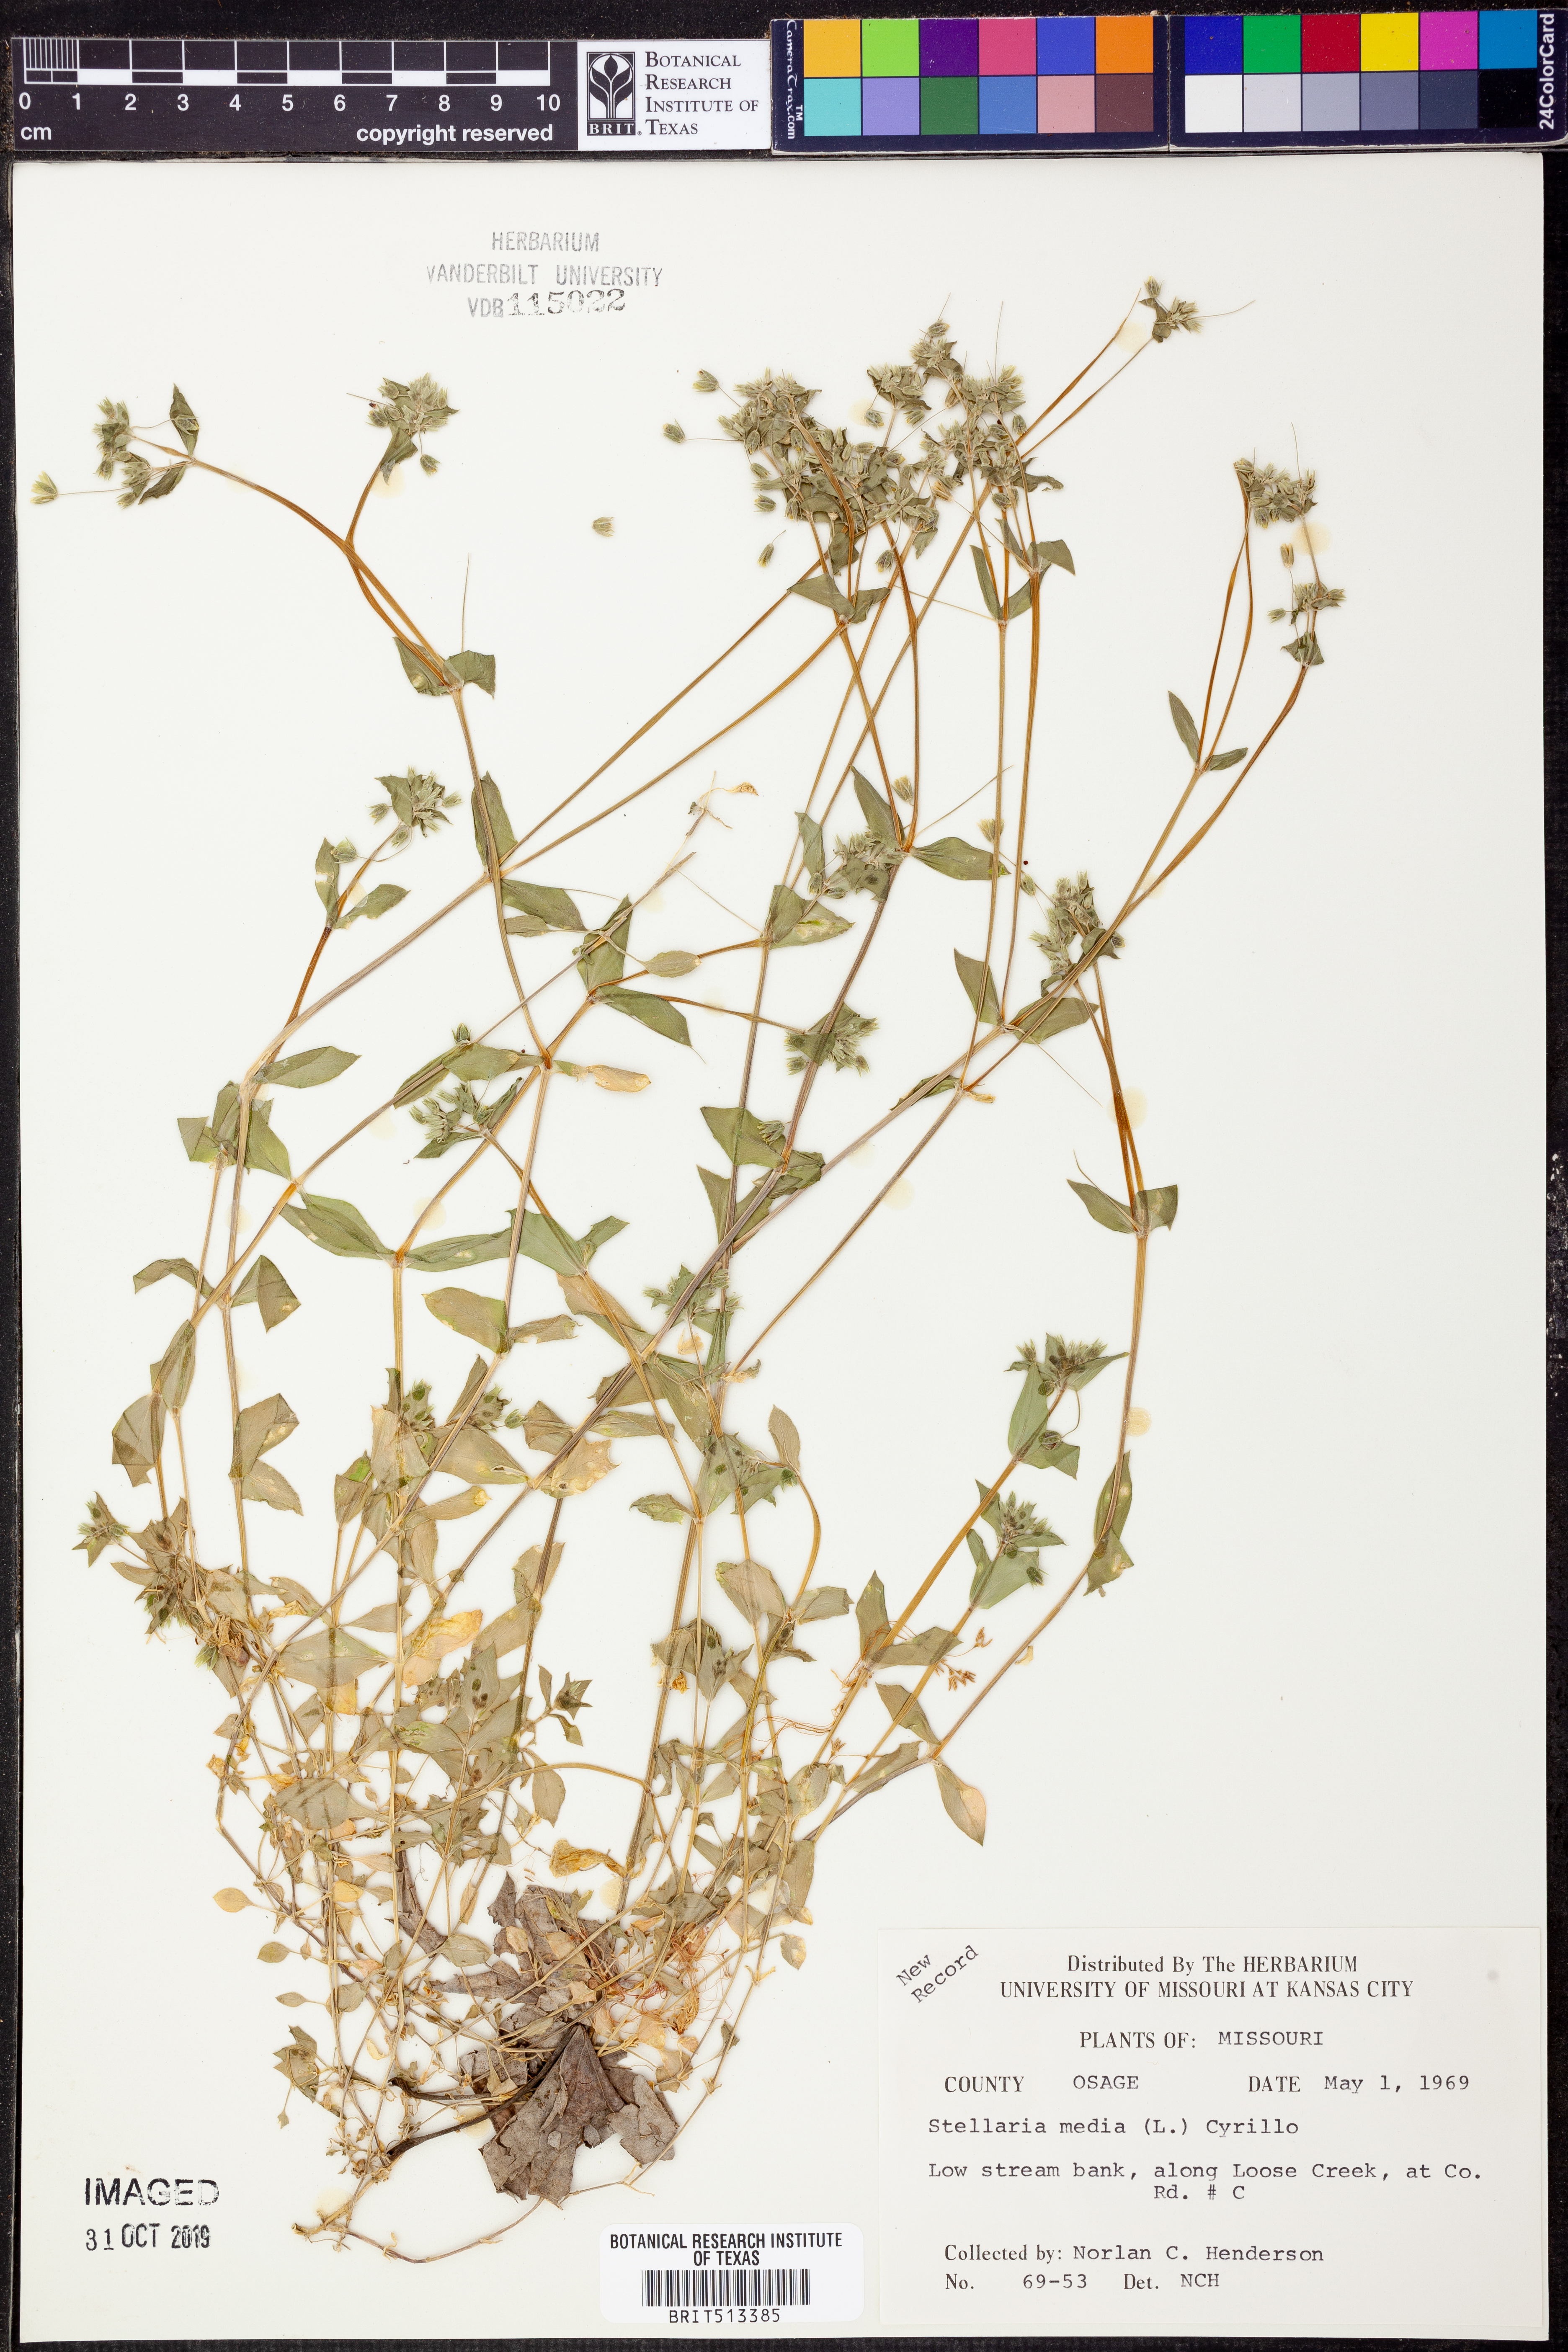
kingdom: Plantae
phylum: Tracheophyta
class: Magnoliopsida
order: Caryophyllales
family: Caryophyllaceae
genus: Stellaria
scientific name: Stellaria media
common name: Common chickweed
